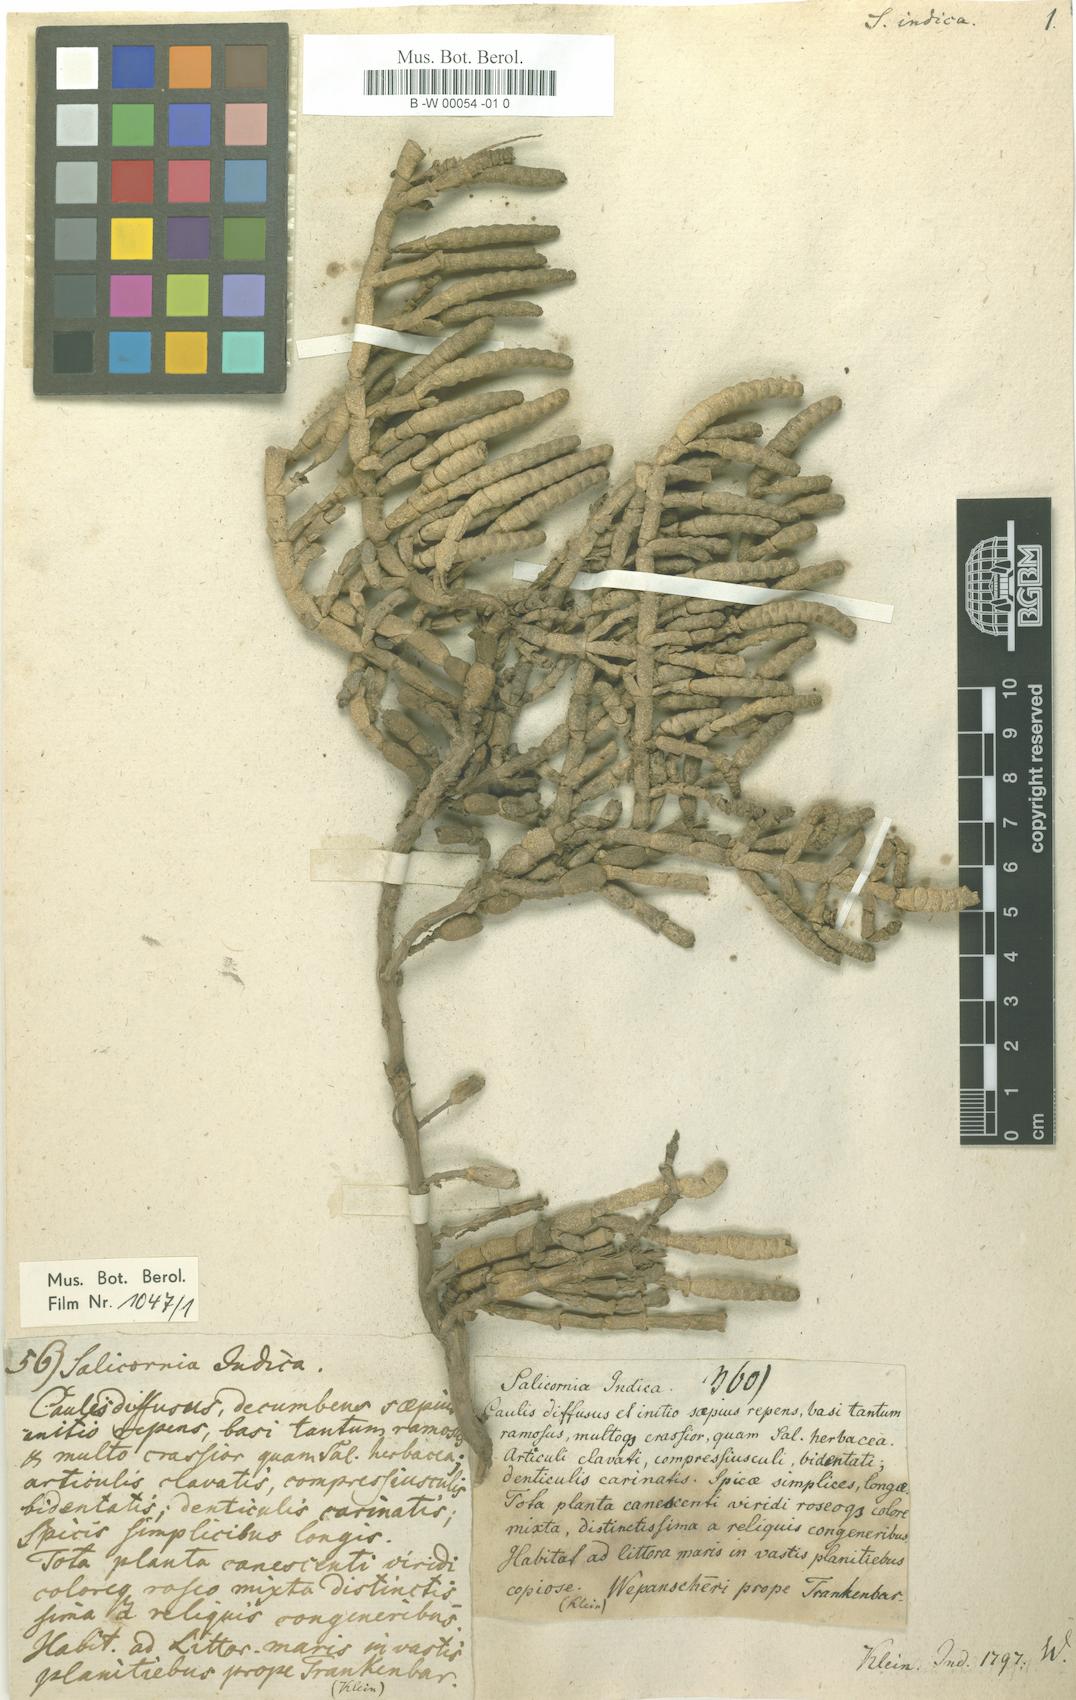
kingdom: Plantae
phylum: Tracheophyta
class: Magnoliopsida
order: Caryophyllales
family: Amaranthaceae
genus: Tecticornia
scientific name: Tecticornia indica
